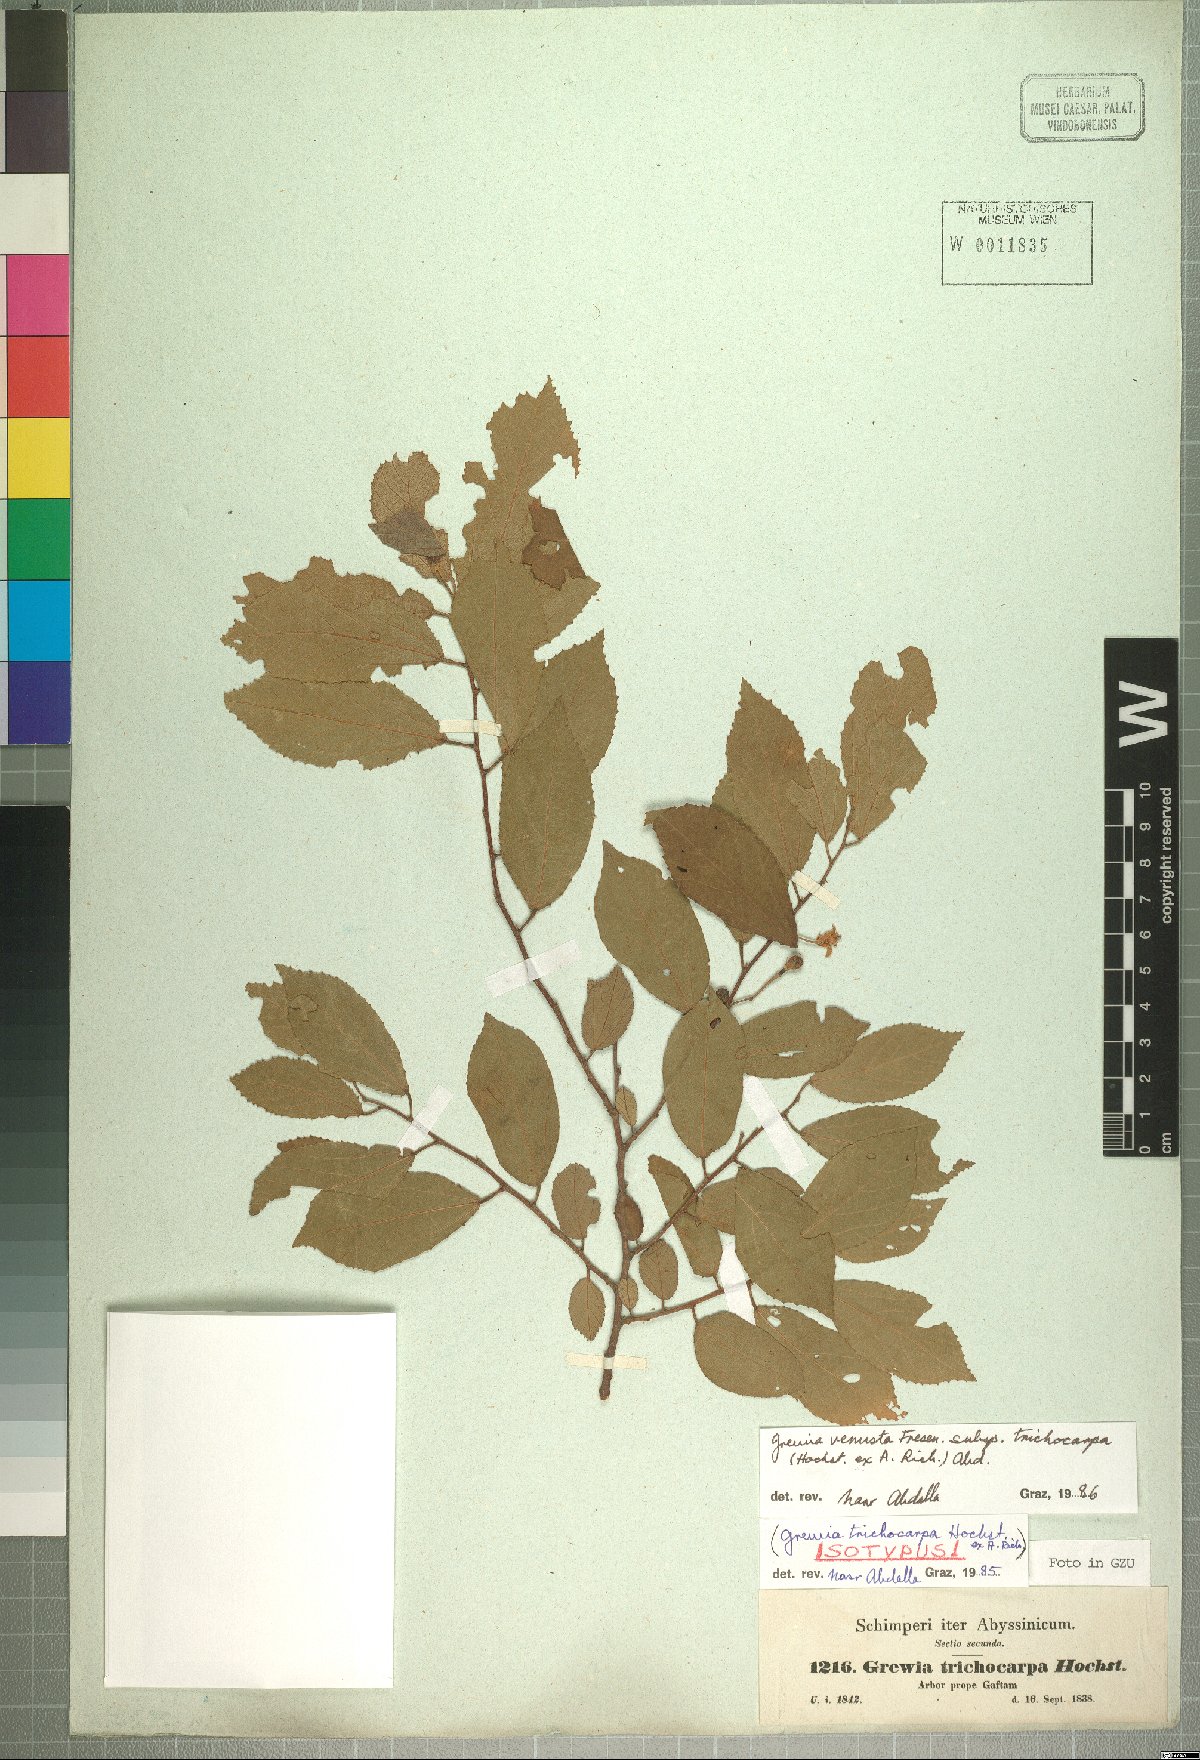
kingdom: Plantae
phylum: Tracheophyta
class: Magnoliopsida
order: Malvales
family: Malvaceae
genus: Grewia
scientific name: Grewia trichocarpa
